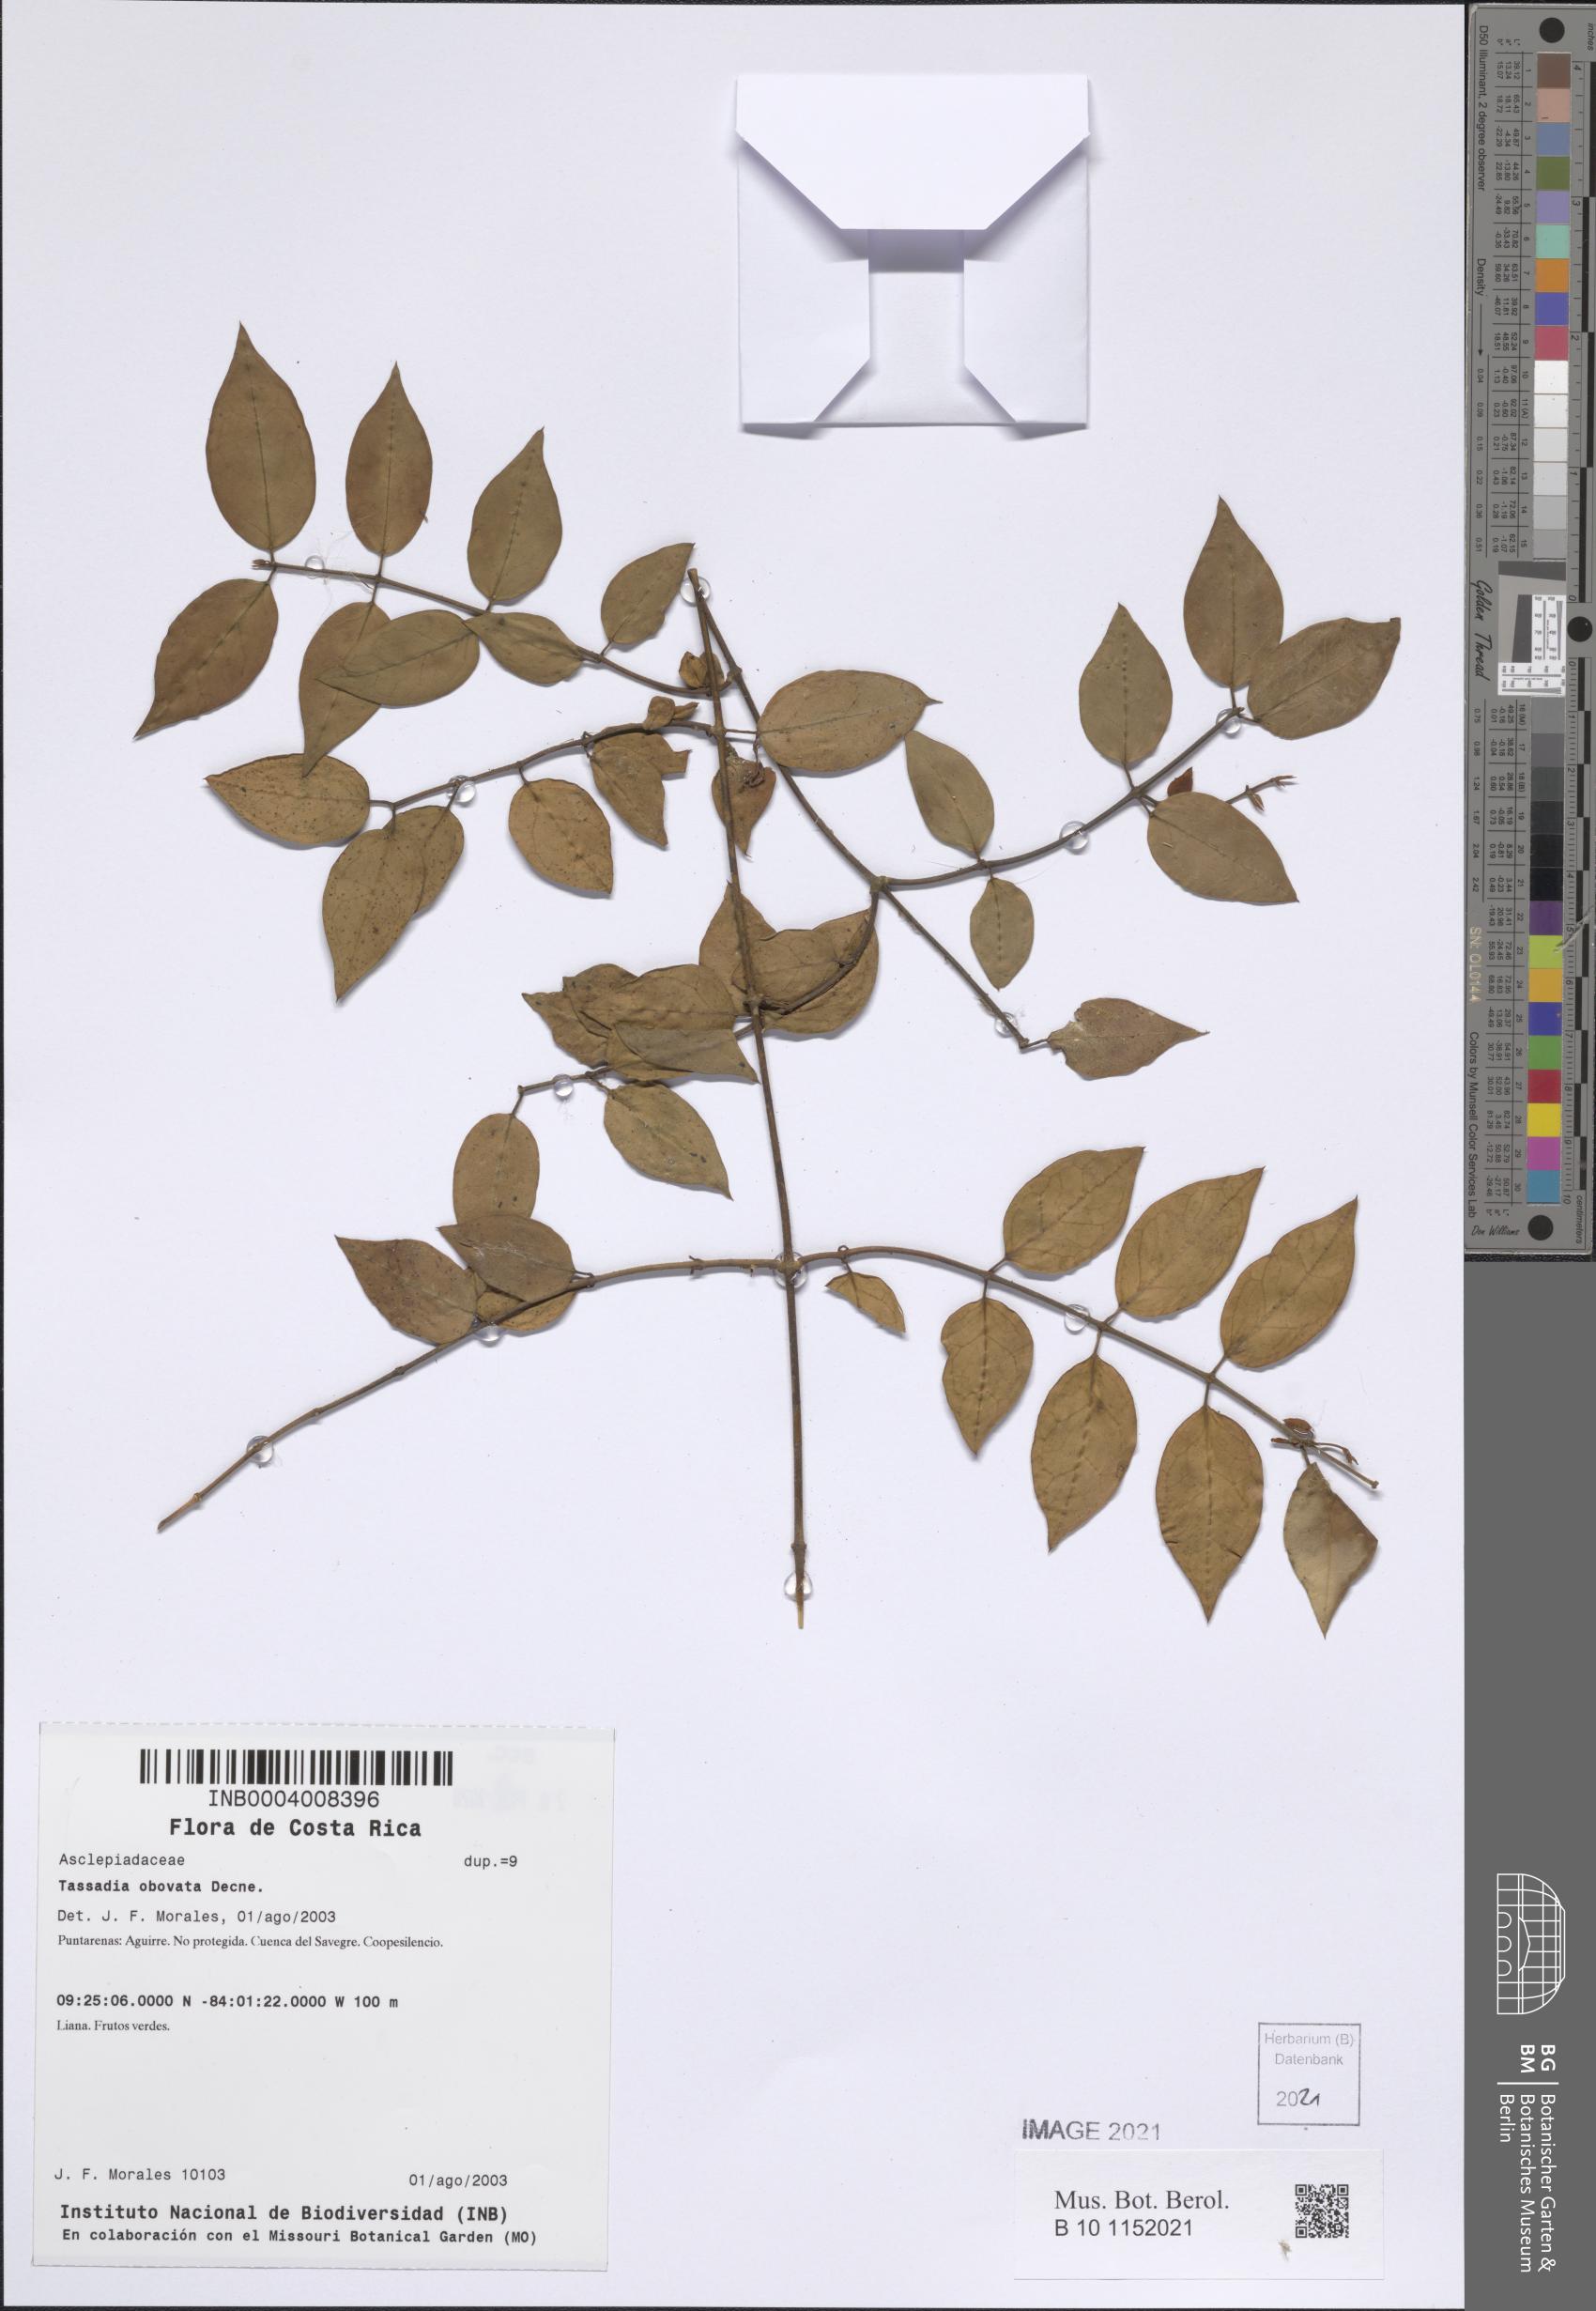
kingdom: Plantae
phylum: Tracheophyta
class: Magnoliopsida
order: Gentianales
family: Apocynaceae
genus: Tassadia
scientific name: Tassadia obovata
